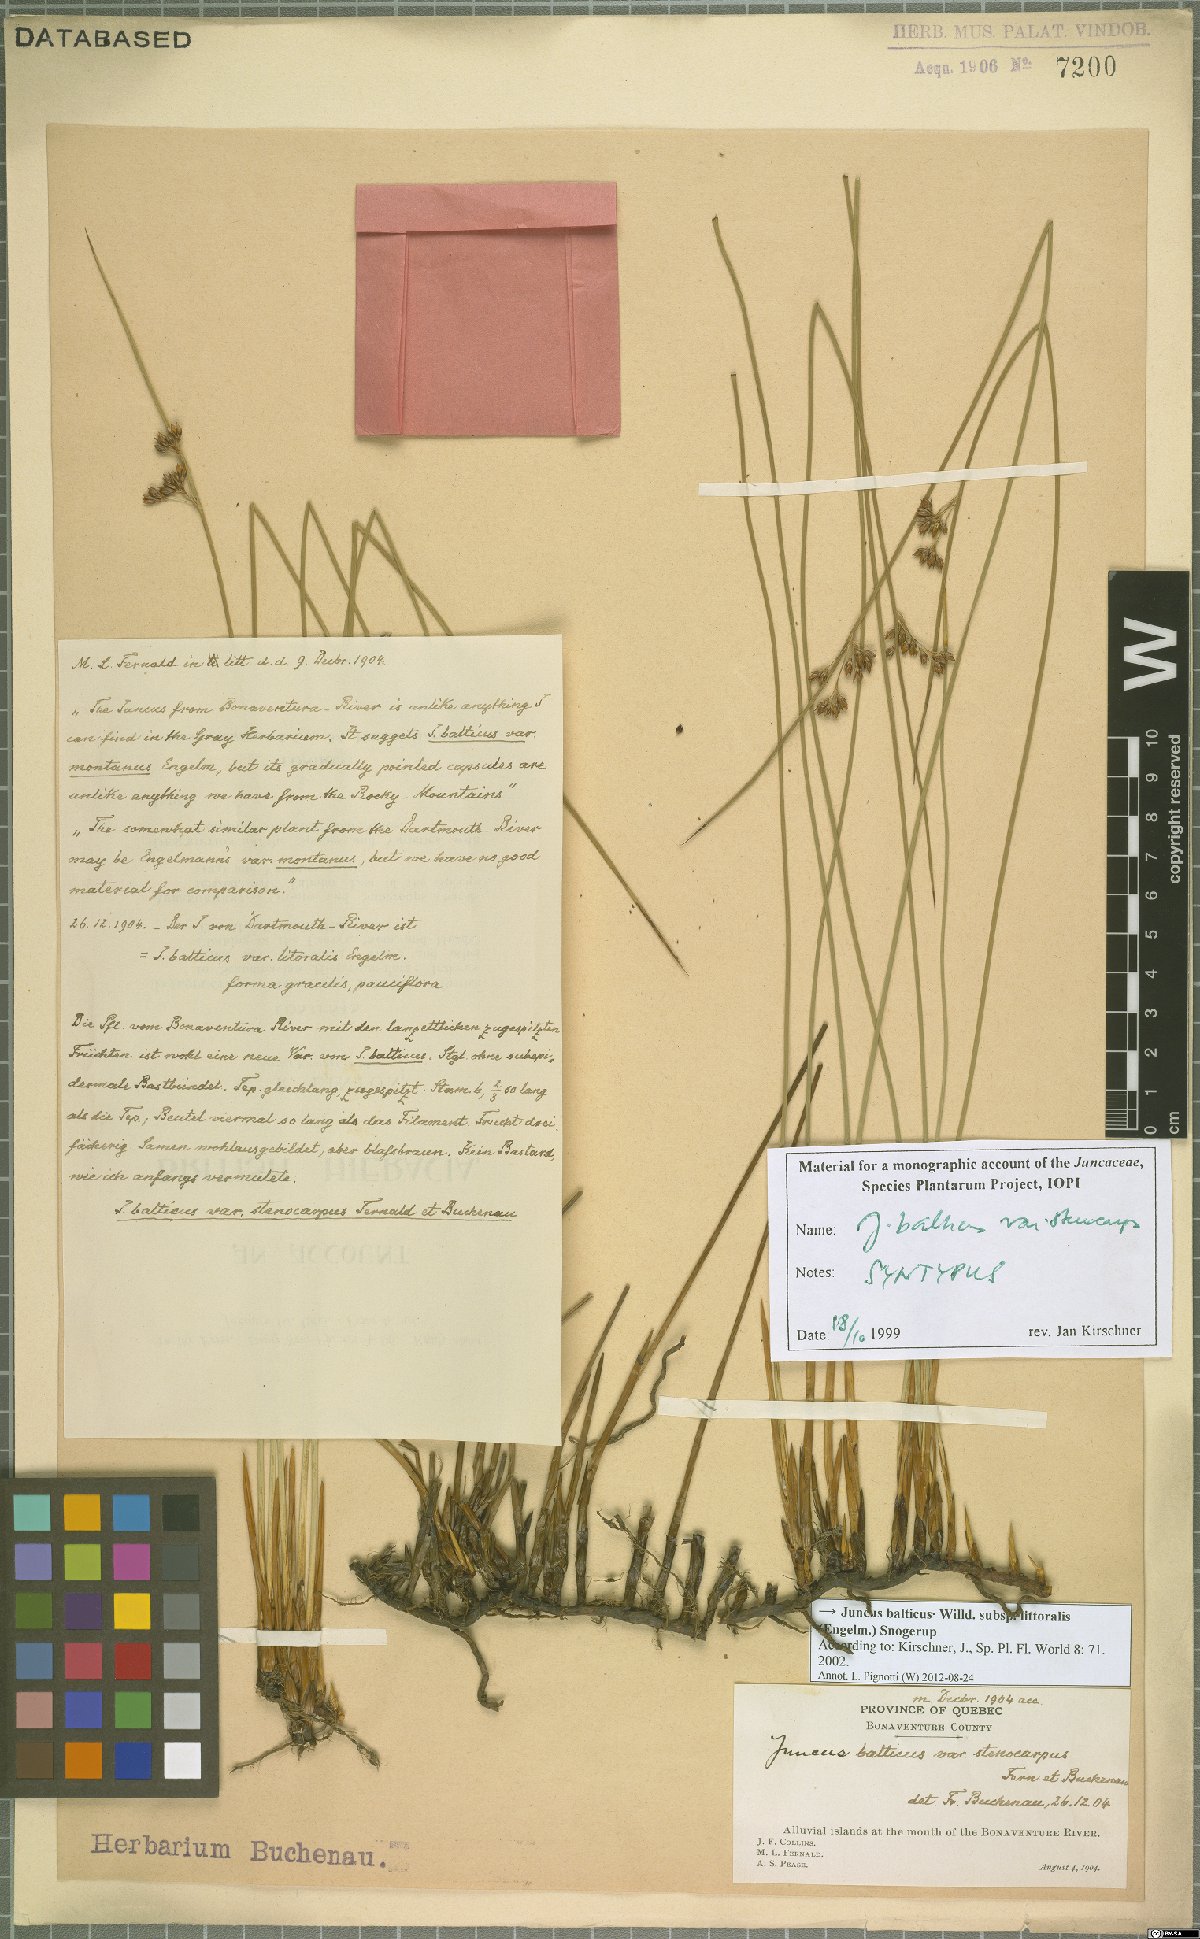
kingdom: Plantae
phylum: Tracheophyta
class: Liliopsida
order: Poales
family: Juncaceae
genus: Juncus
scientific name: Juncus balticus
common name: Baltic rush
